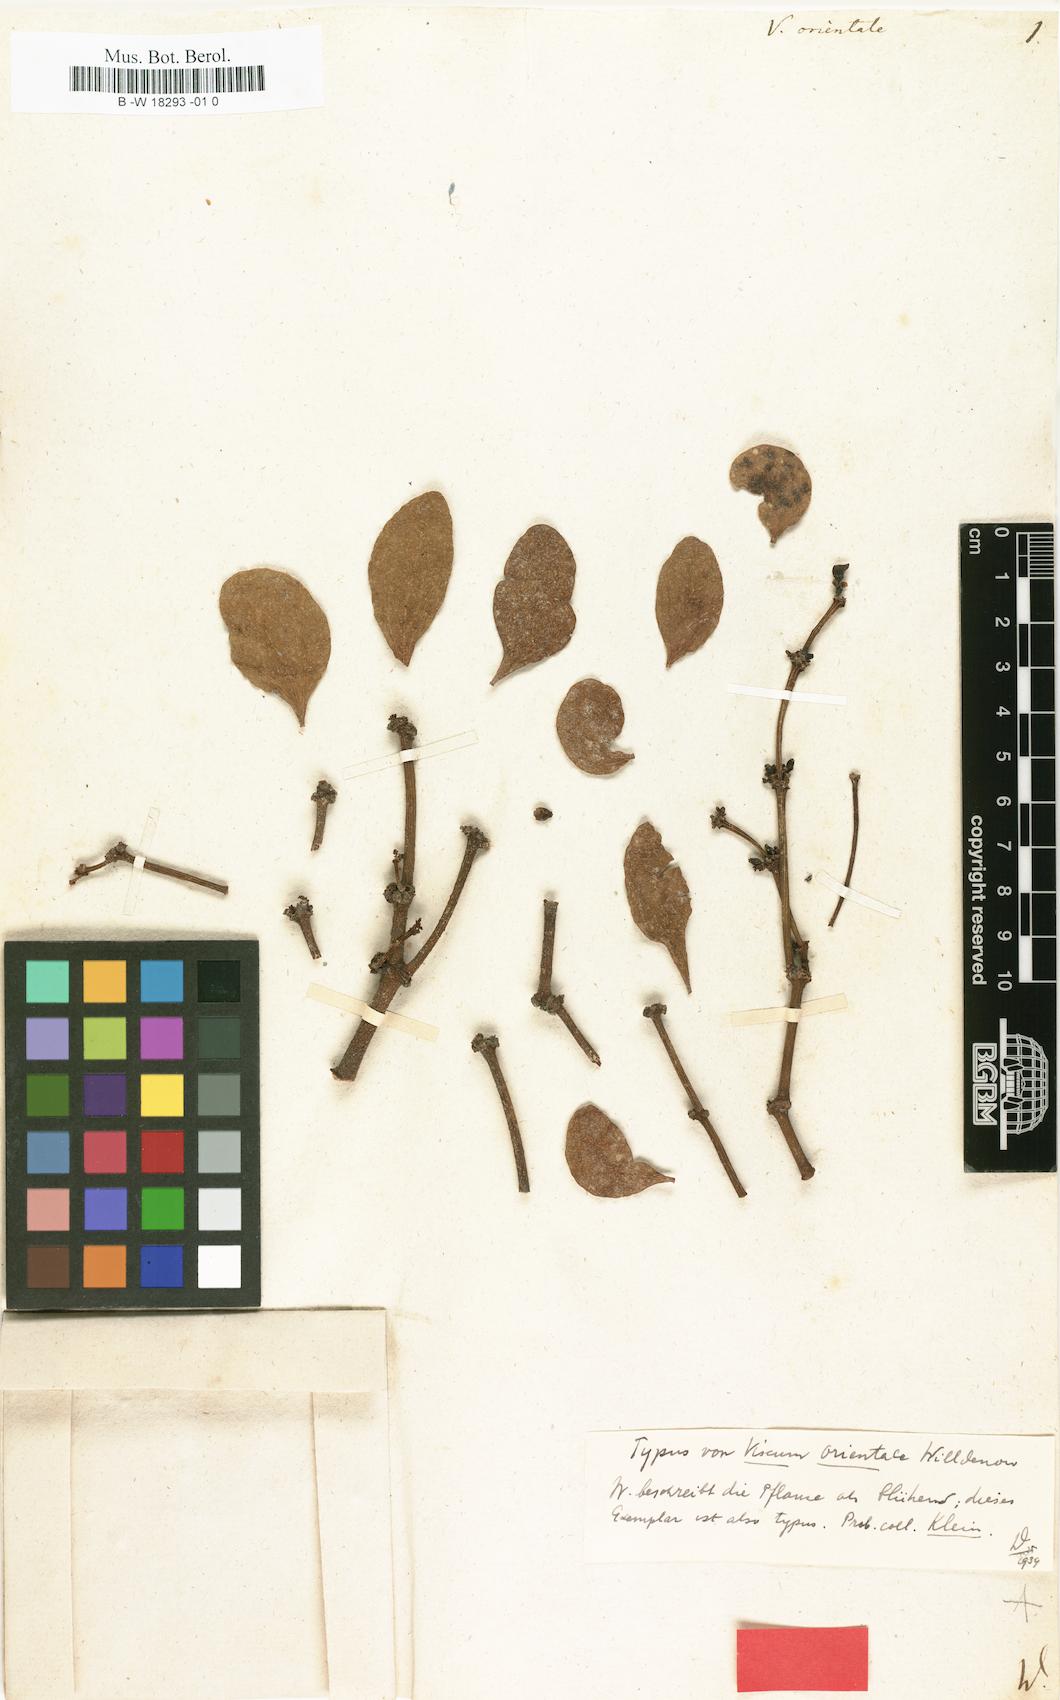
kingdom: Plantae
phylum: Tracheophyta
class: Magnoliopsida
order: Santalales
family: Viscaceae
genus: Viscum
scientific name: Viscum orientale
